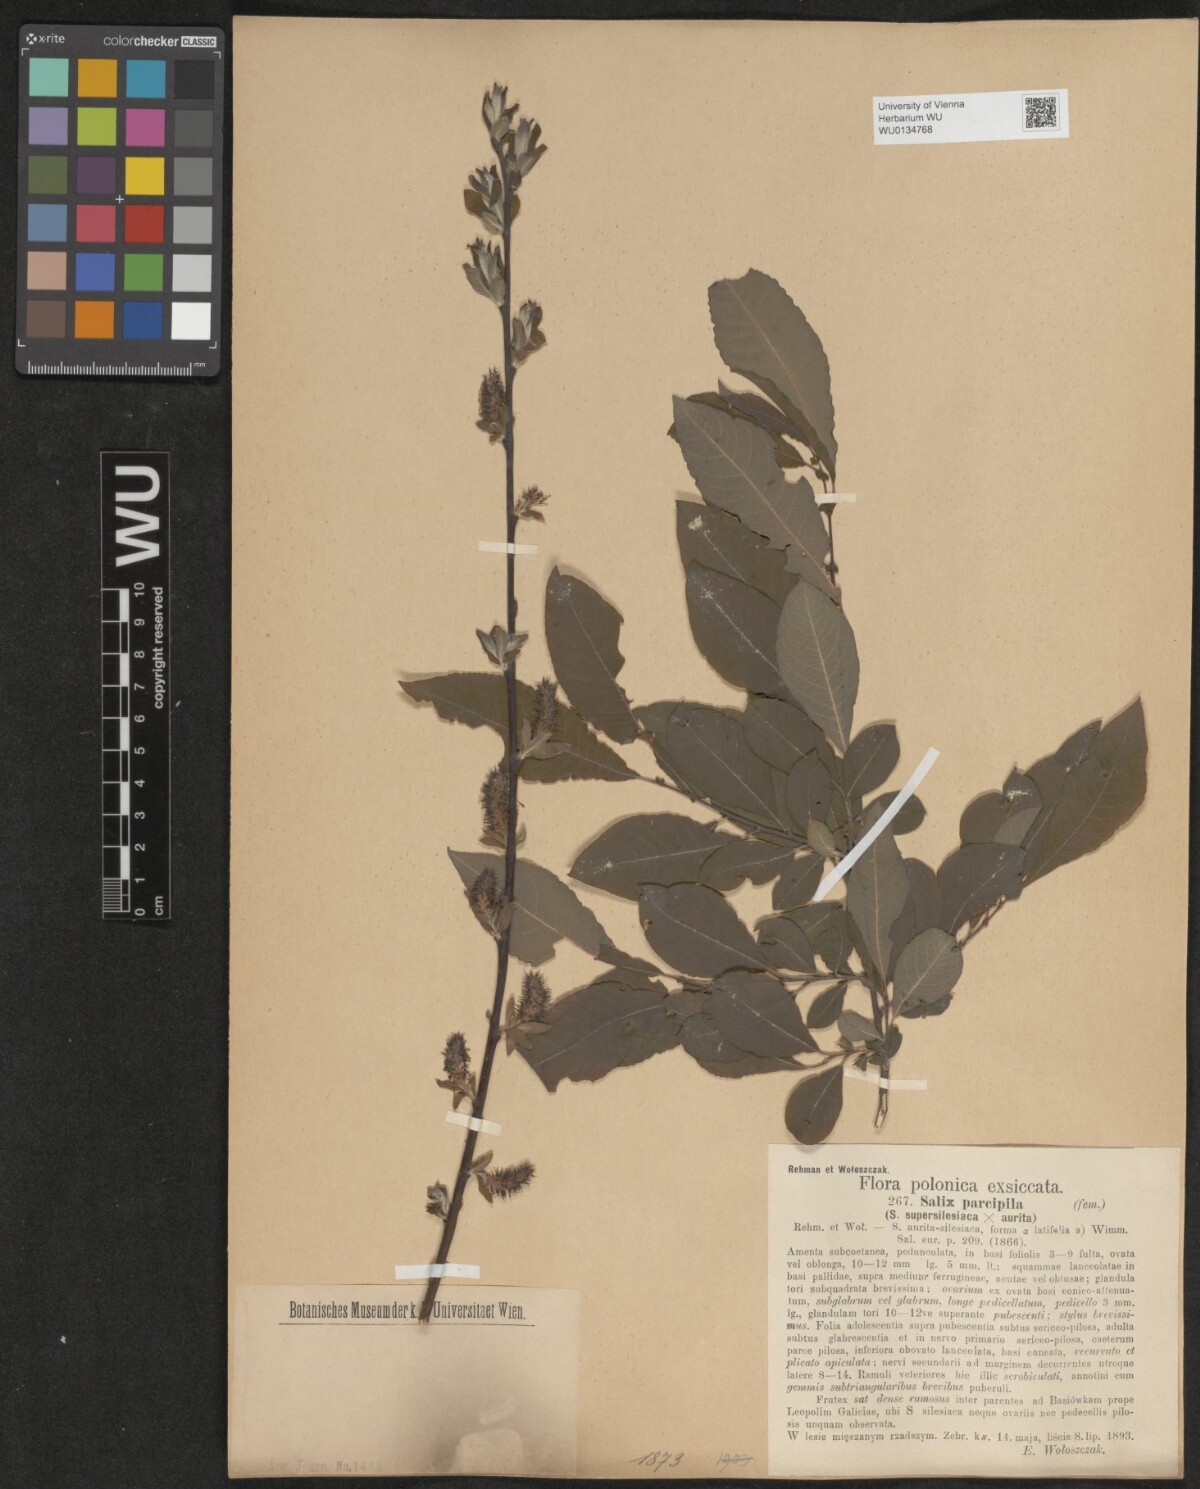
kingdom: Plantae
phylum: Tracheophyta
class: Magnoliopsida
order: Malpighiales
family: Salicaceae
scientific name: Salicaceae
